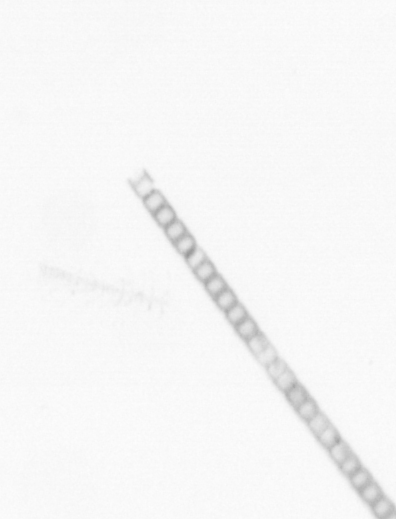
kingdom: Chromista
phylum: Ochrophyta
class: Bacillariophyceae
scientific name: Bacillariophyceae
